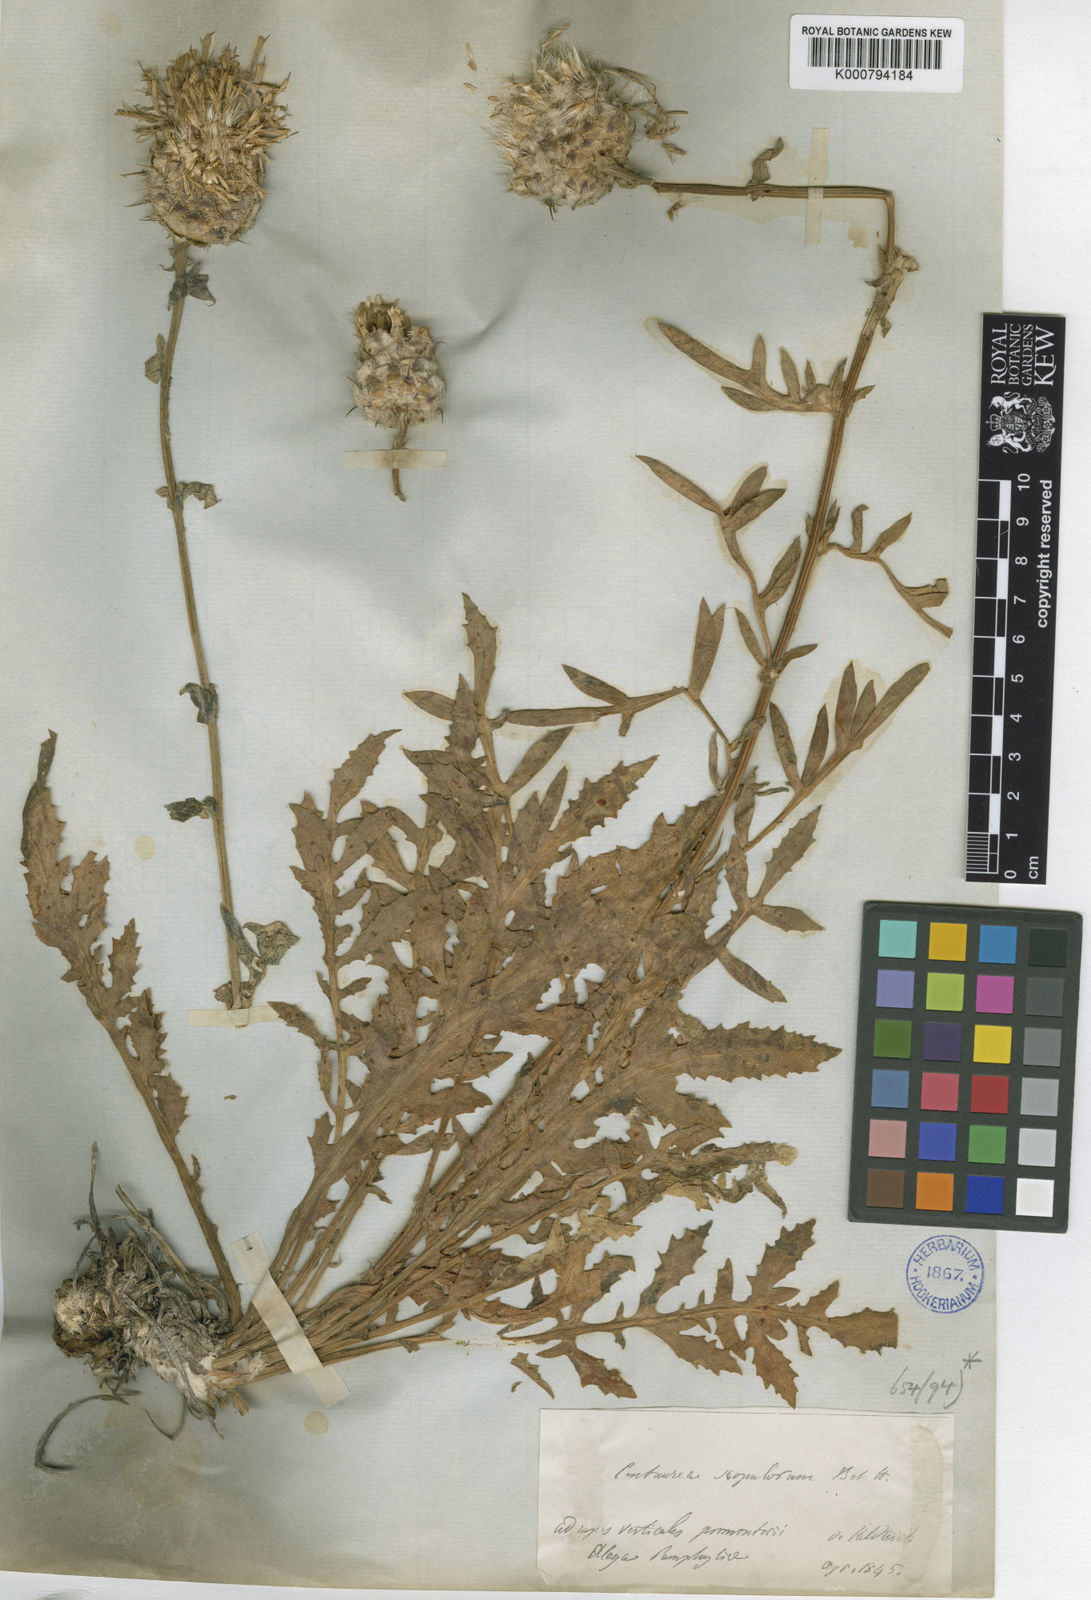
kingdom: Plantae
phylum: Tracheophyta
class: Magnoliopsida
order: Asterales
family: Asteraceae
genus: Centaurea
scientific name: Centaurea scopulorum
